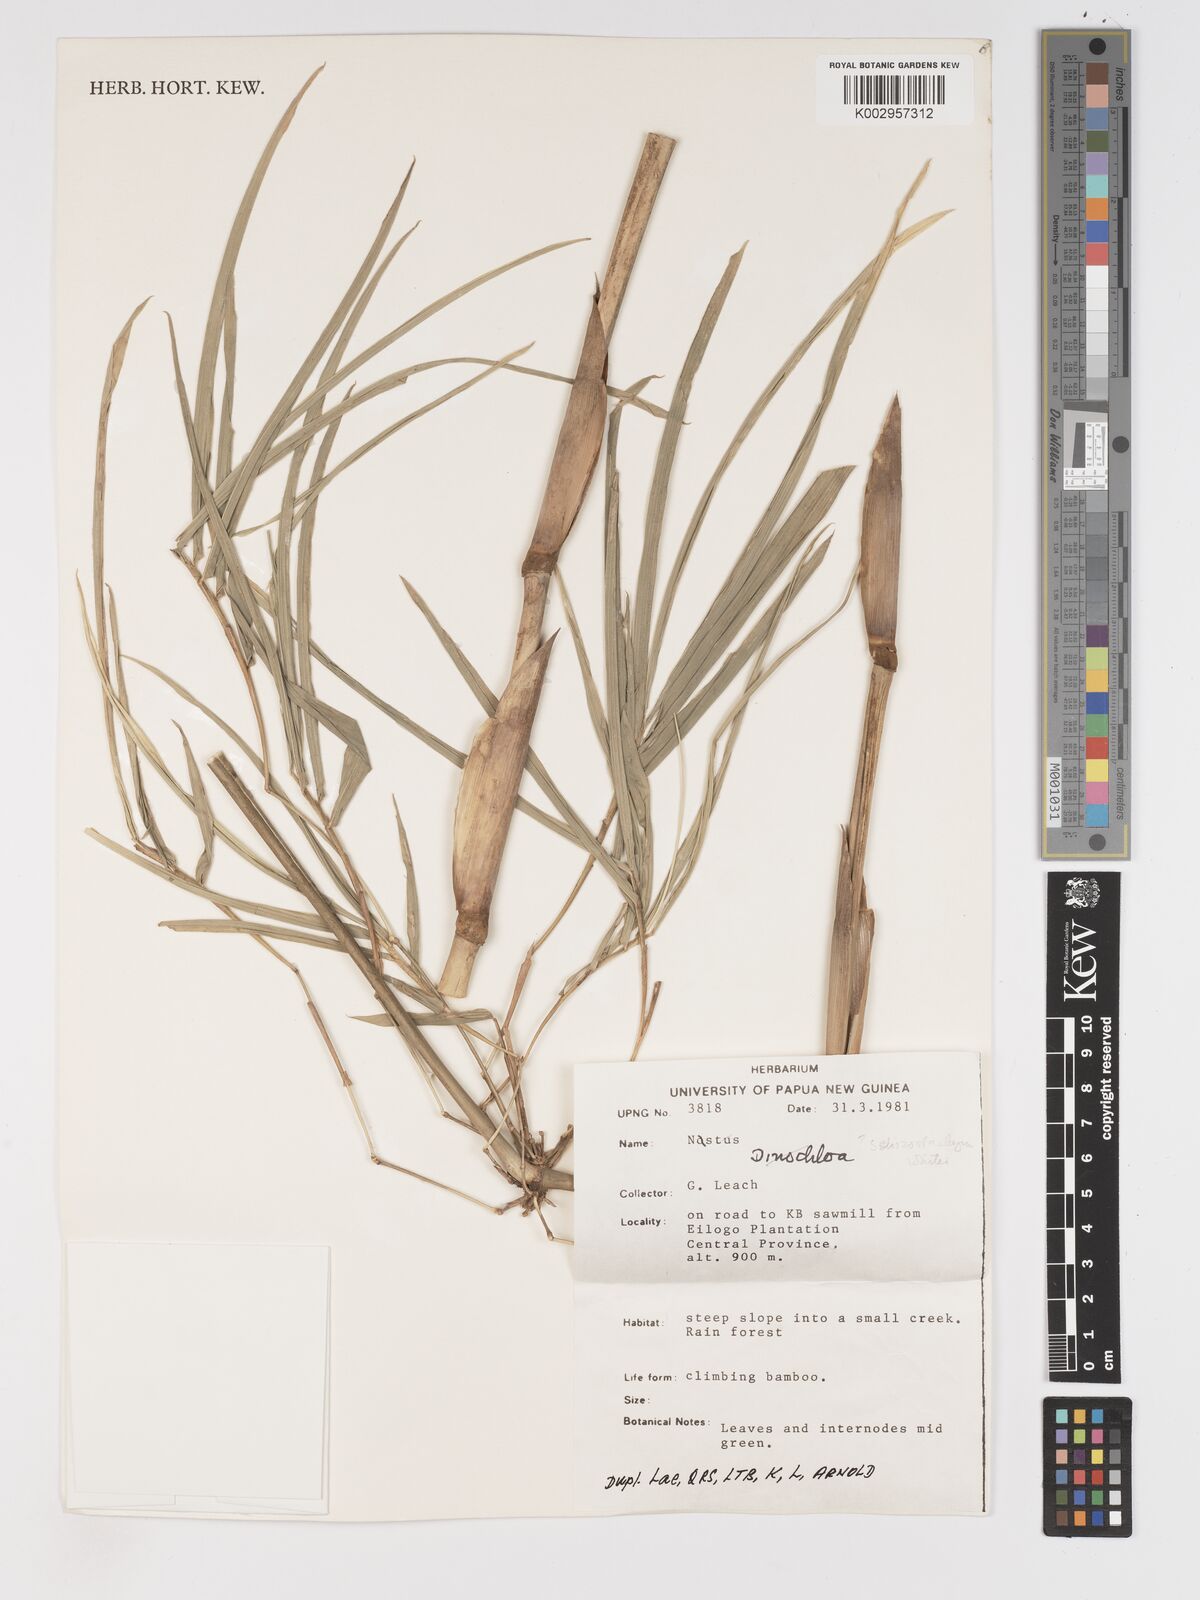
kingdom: Plantae
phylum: Tracheophyta
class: Liliopsida
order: Poales
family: Poaceae
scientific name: Poaceae
